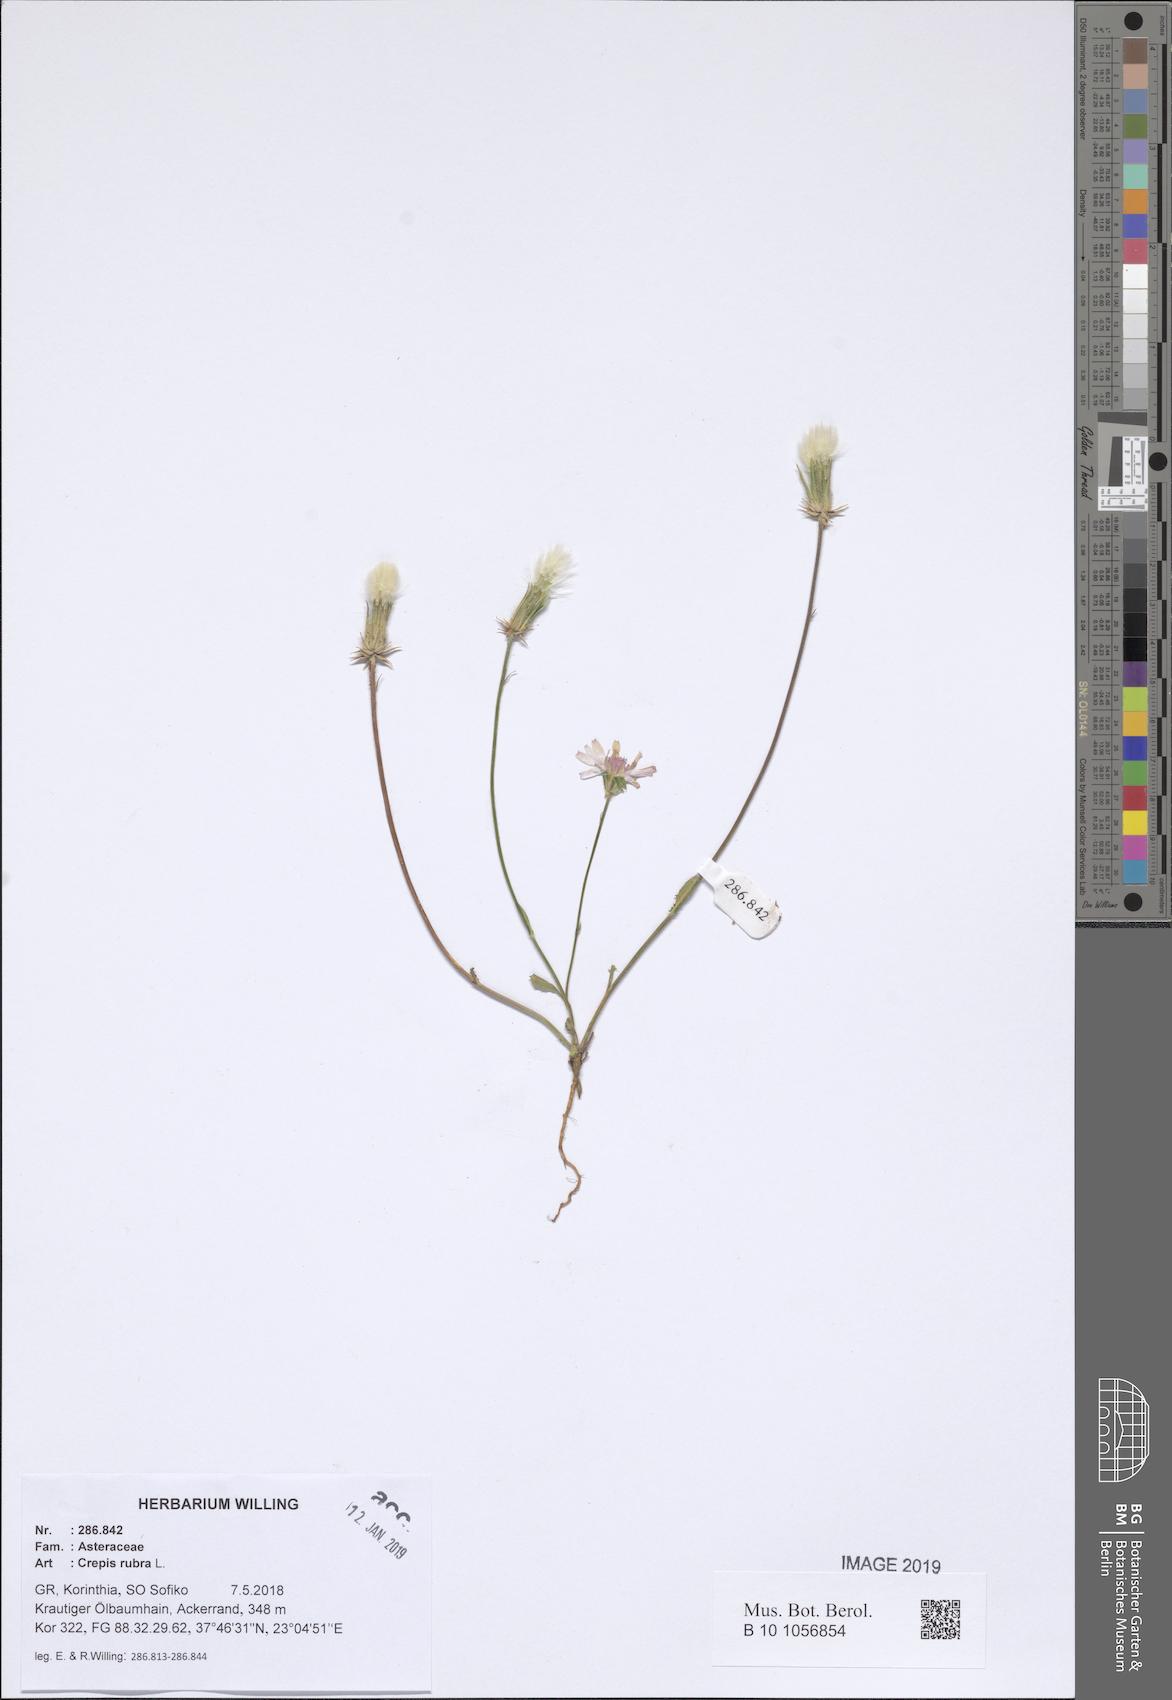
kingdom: Plantae
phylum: Tracheophyta
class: Magnoliopsida
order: Asterales
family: Asteraceae
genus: Crepis
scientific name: Crepis rubra
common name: Pink hawk's-beard
